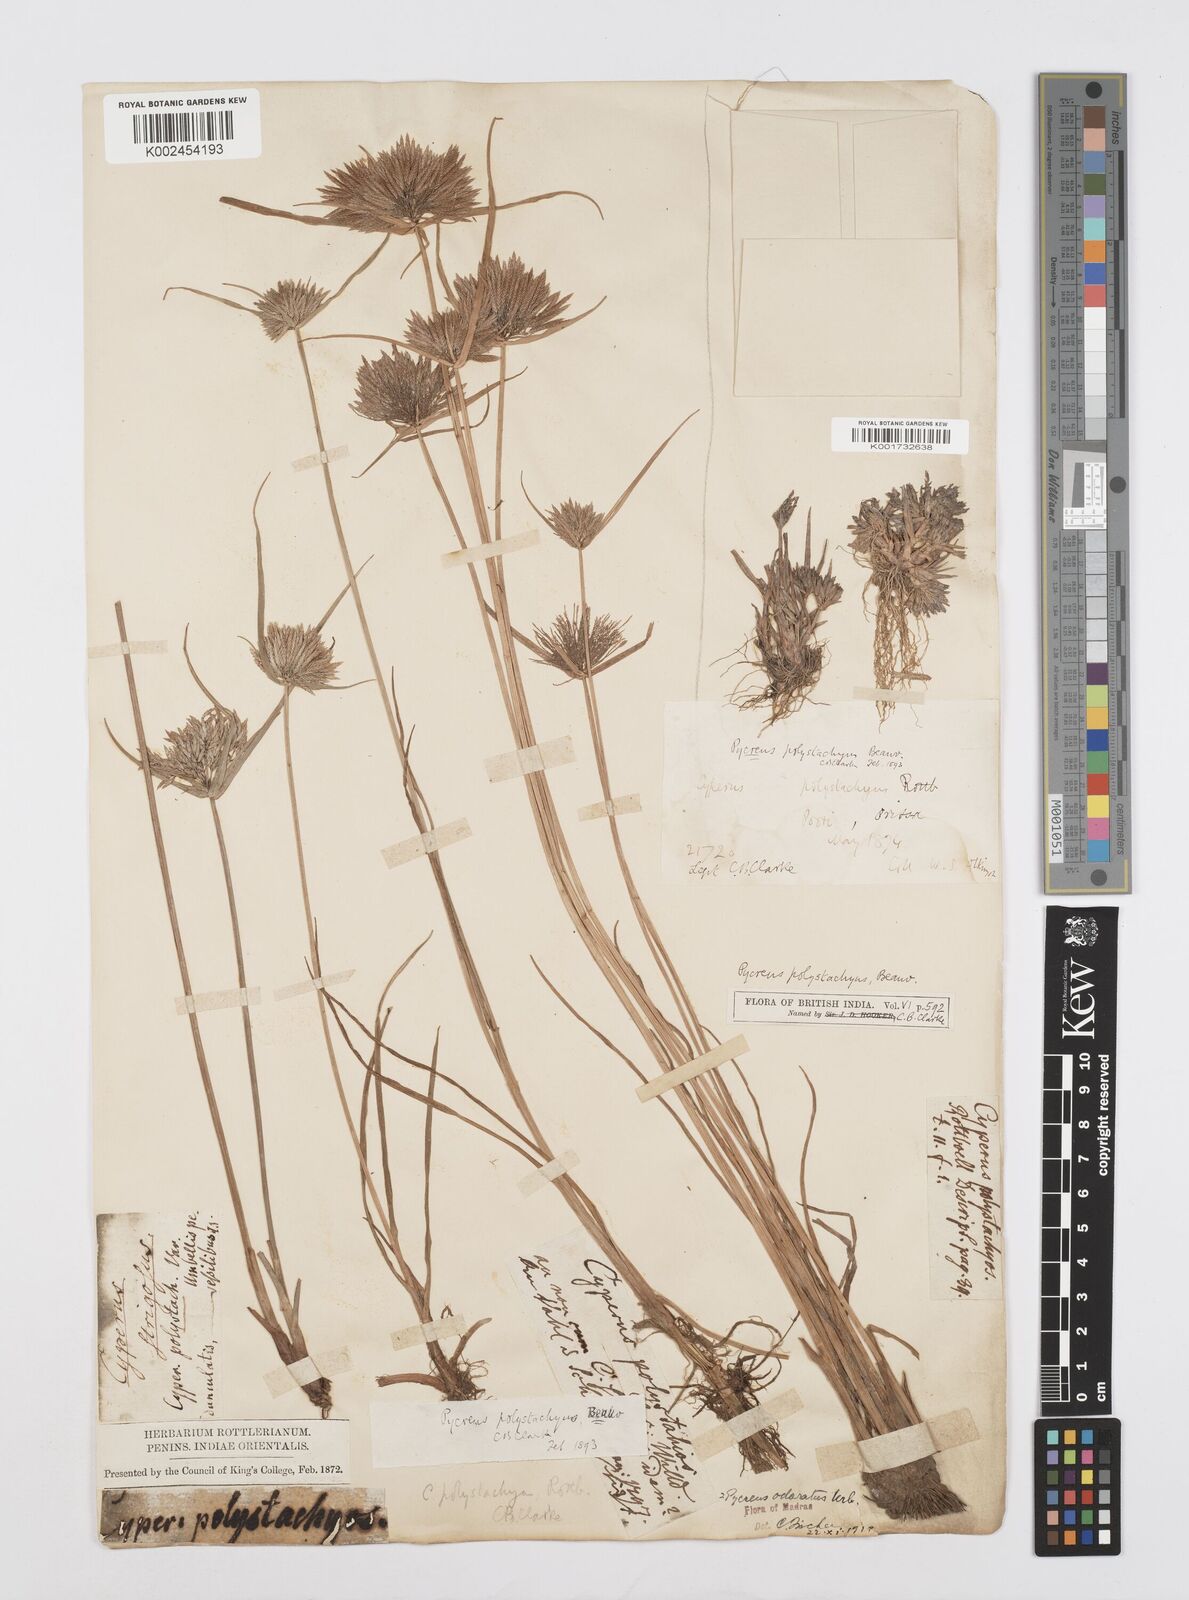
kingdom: Plantae
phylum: Tracheophyta
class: Liliopsida
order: Poales
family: Cyperaceae
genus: Cyperus
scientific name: Cyperus polystachyos
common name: Bunchy flat sedge
